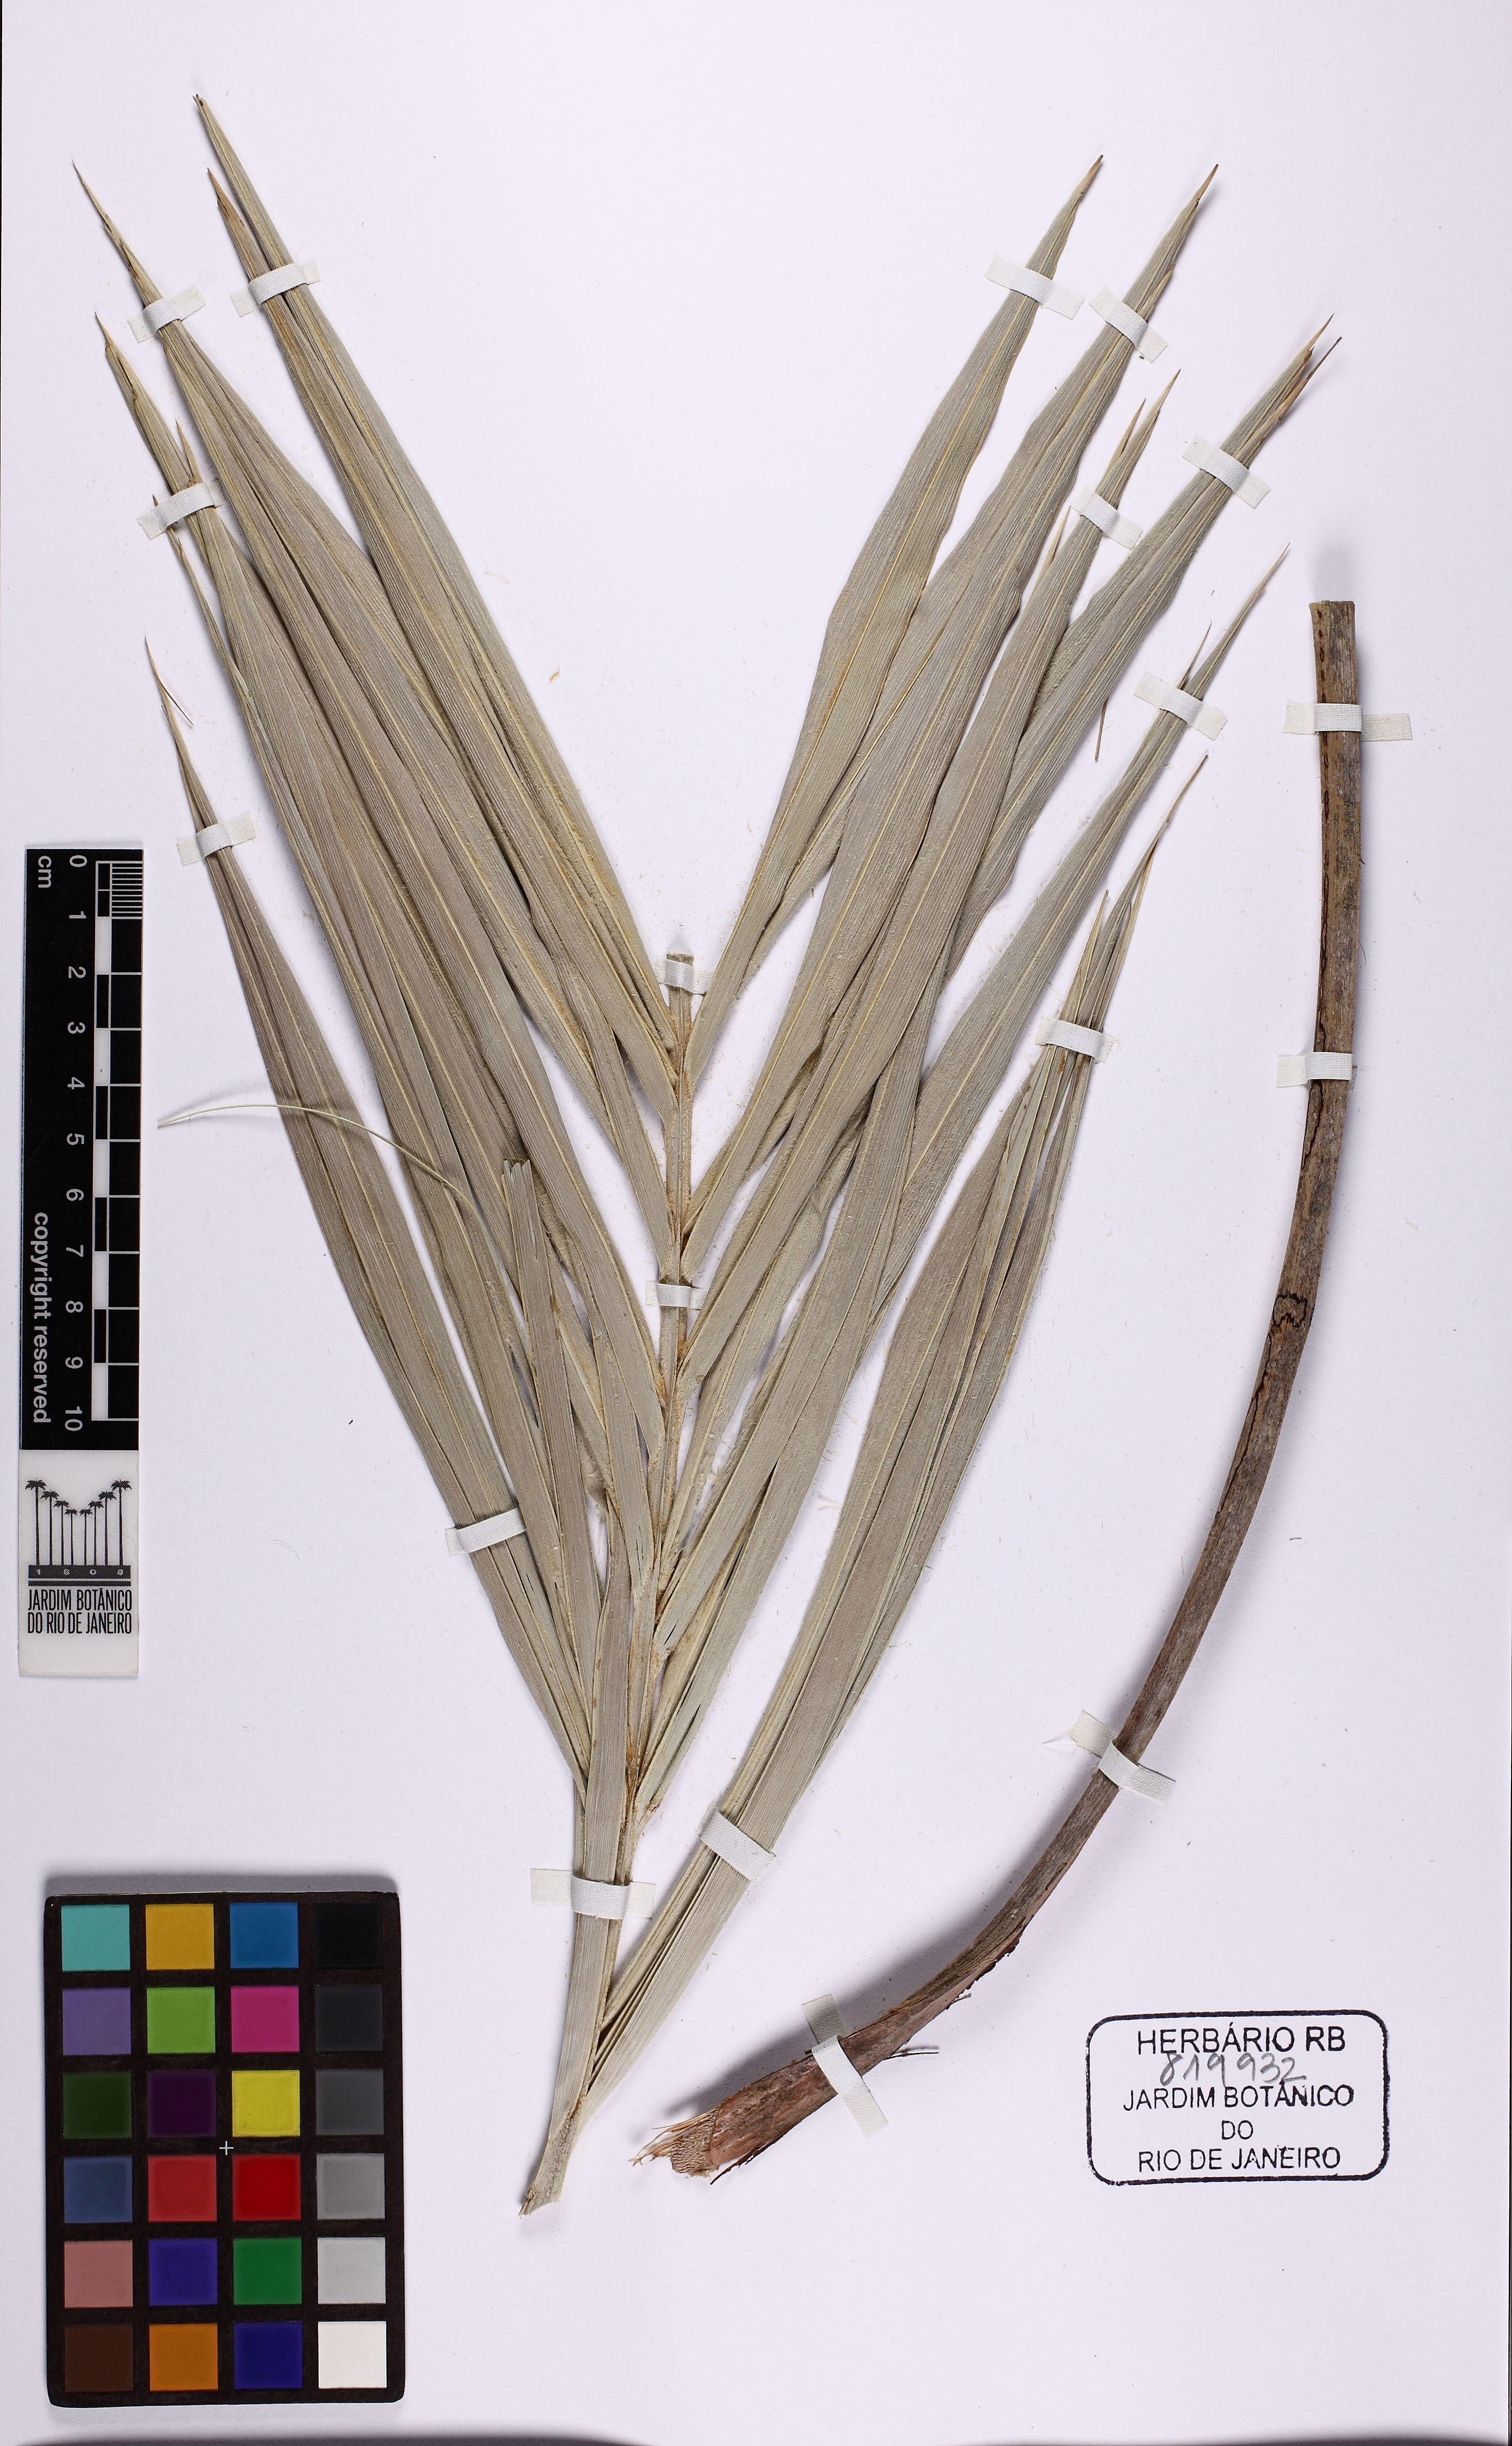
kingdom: Plantae
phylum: Tracheophyta
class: Liliopsida
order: Arecales
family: Arecaceae
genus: Allagoptera
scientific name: Allagoptera arenaria
